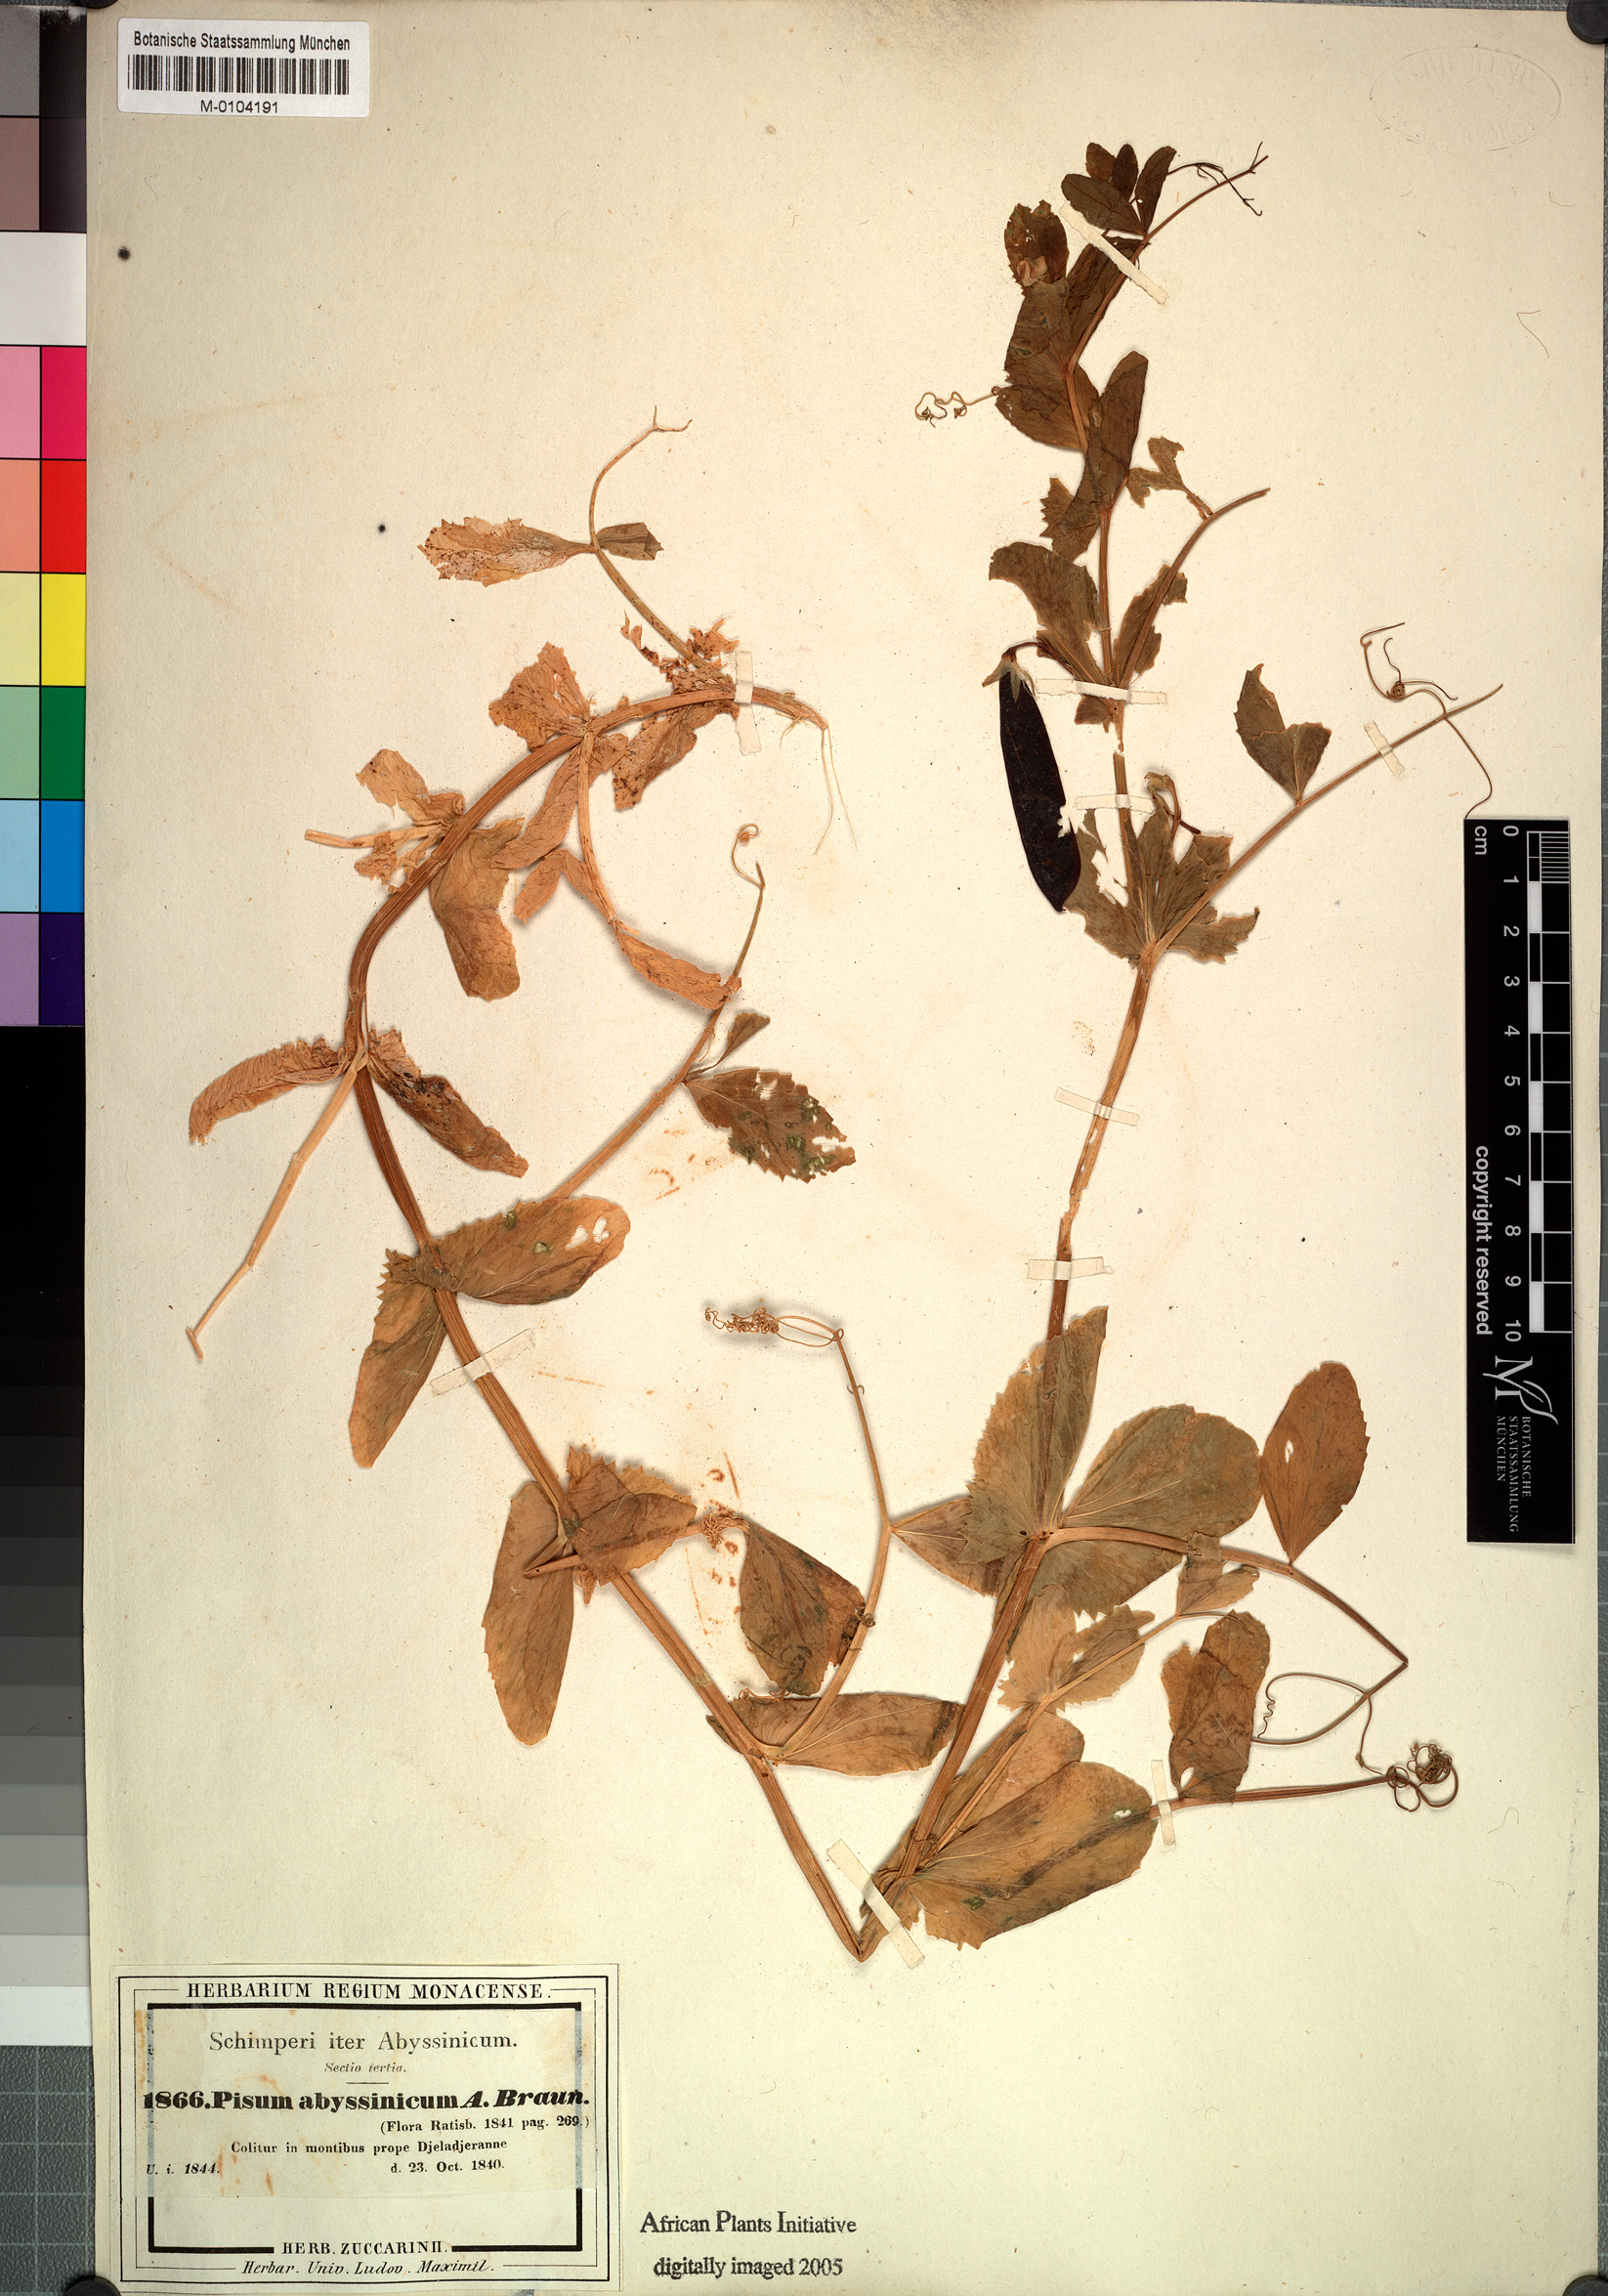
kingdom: Plantae
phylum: Tracheophyta
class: Magnoliopsida
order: Fabales
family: Fabaceae
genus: Lathyrus
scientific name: Lathyrus oleraceus
